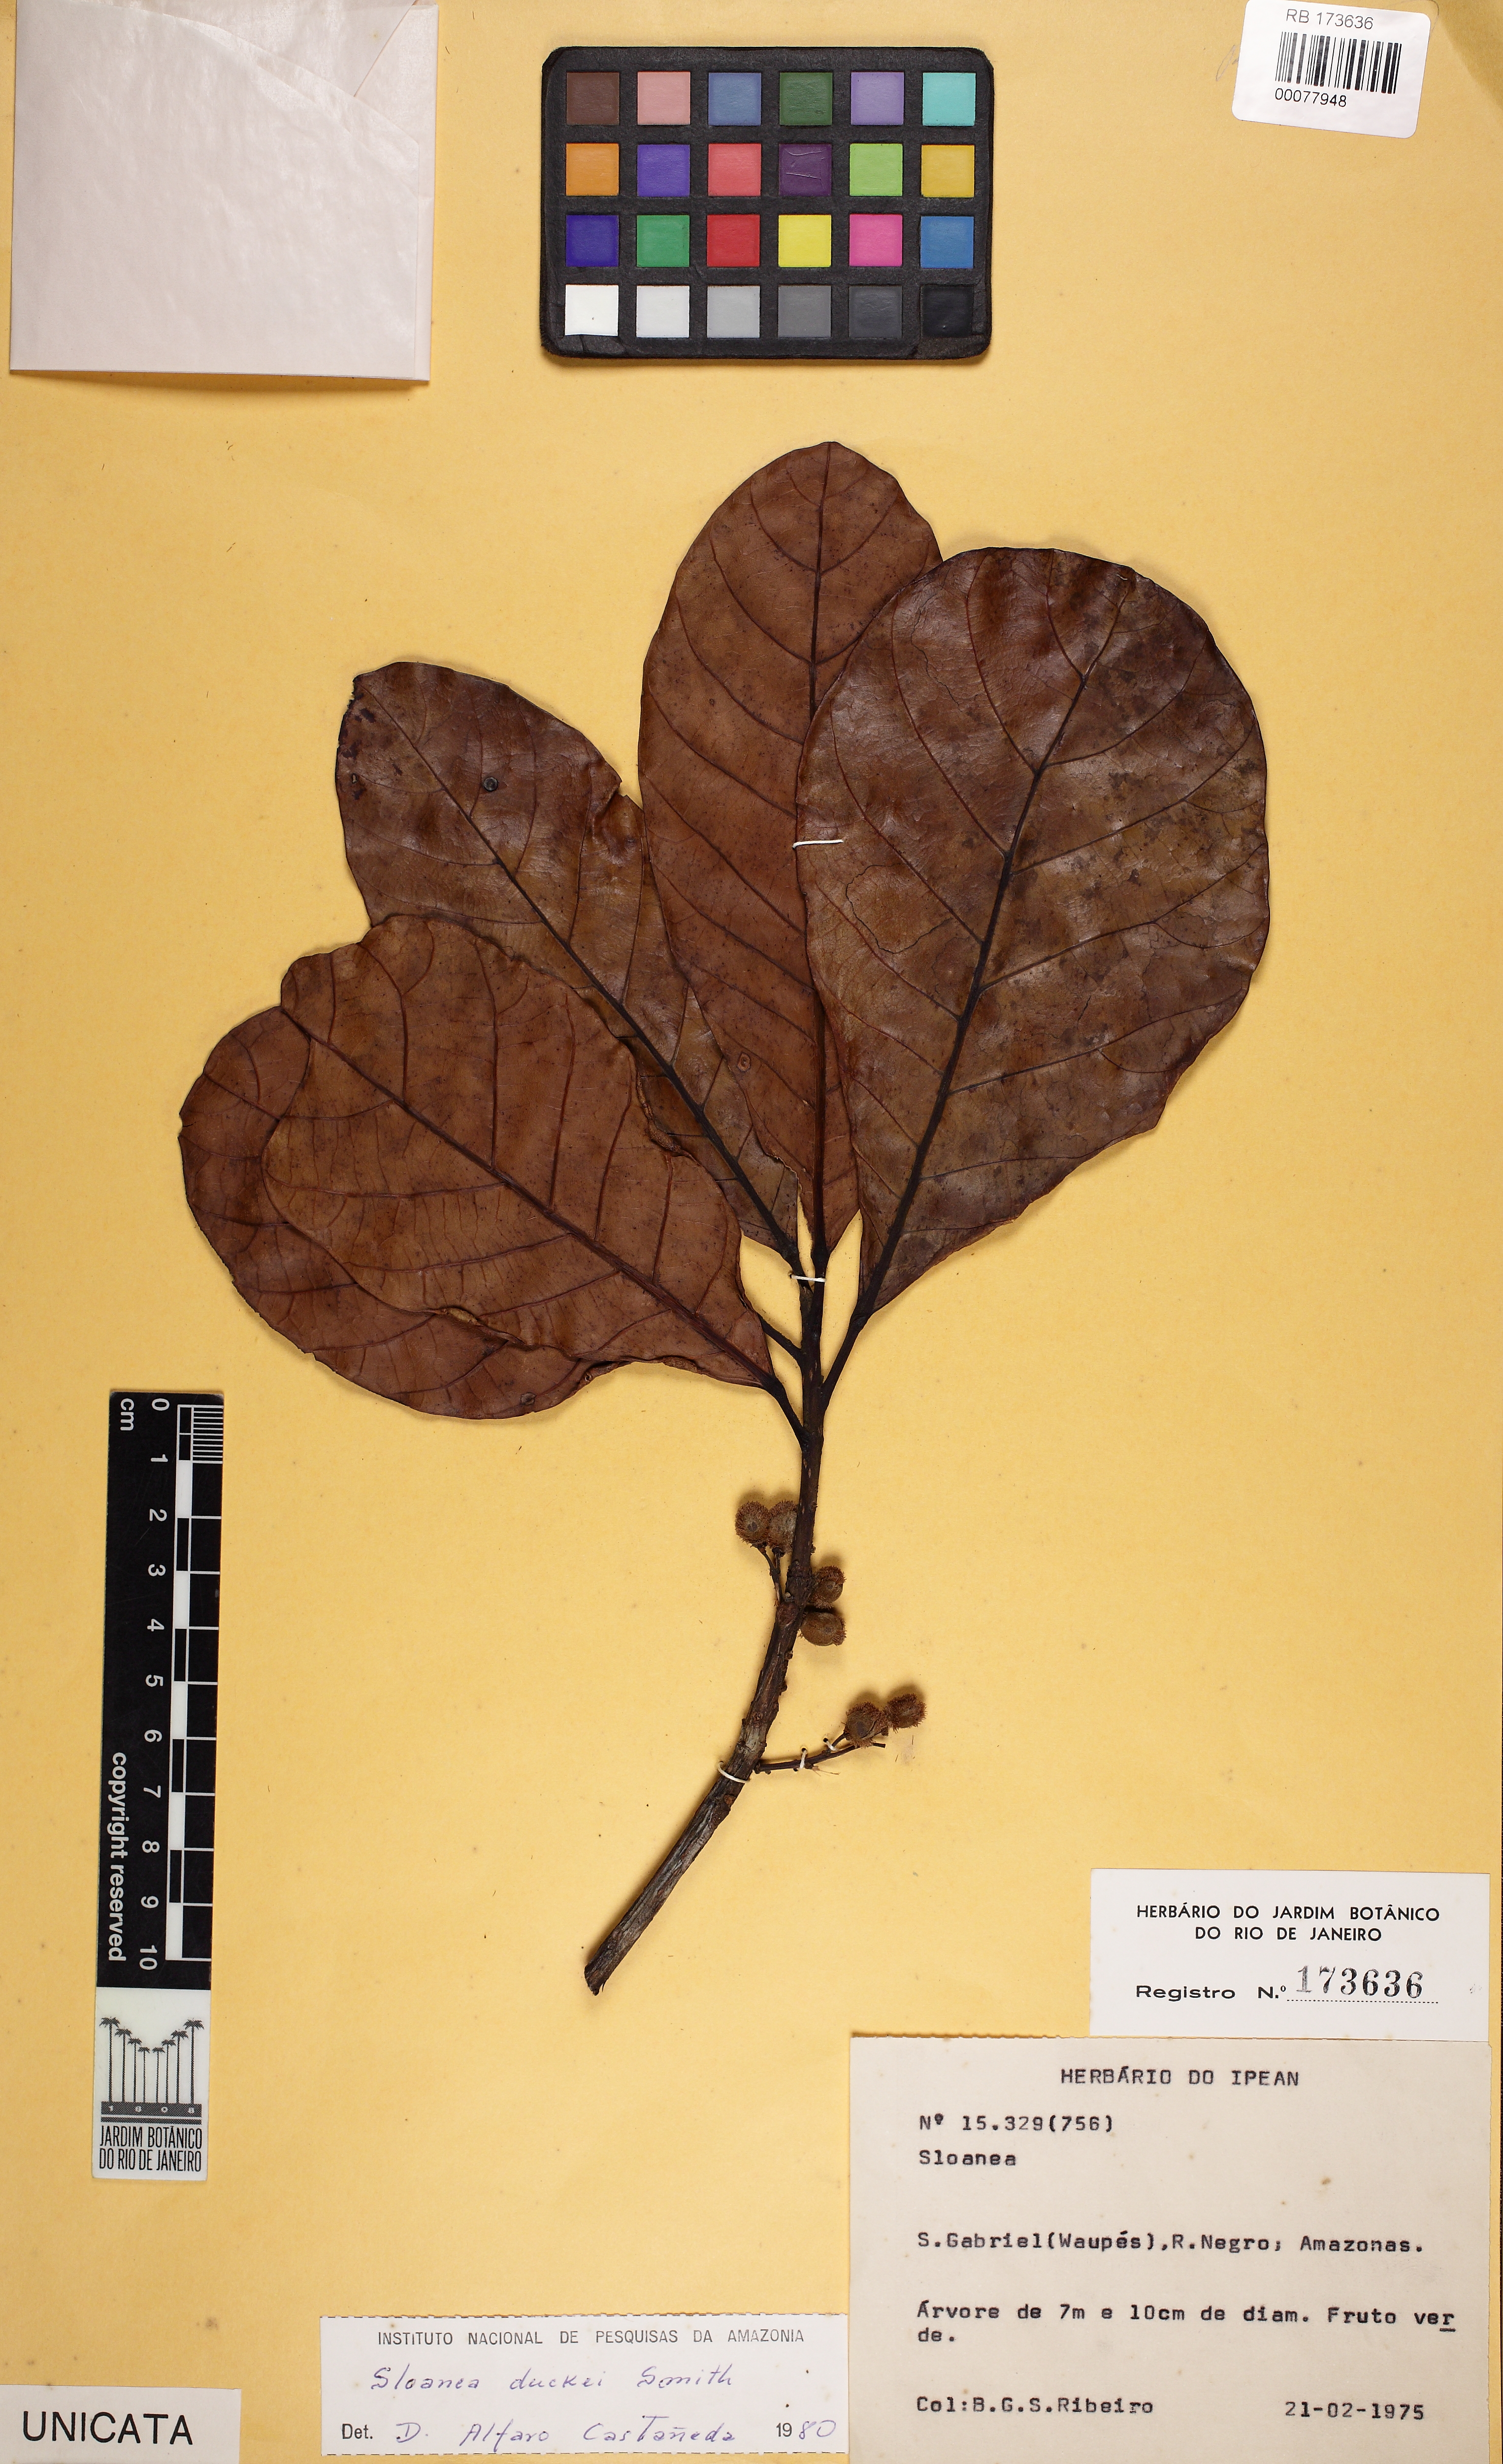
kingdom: Plantae
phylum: Tracheophyta
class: Magnoliopsida
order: Oxalidales
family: Elaeocarpaceae
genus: Sloanea
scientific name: Sloanea duckei
